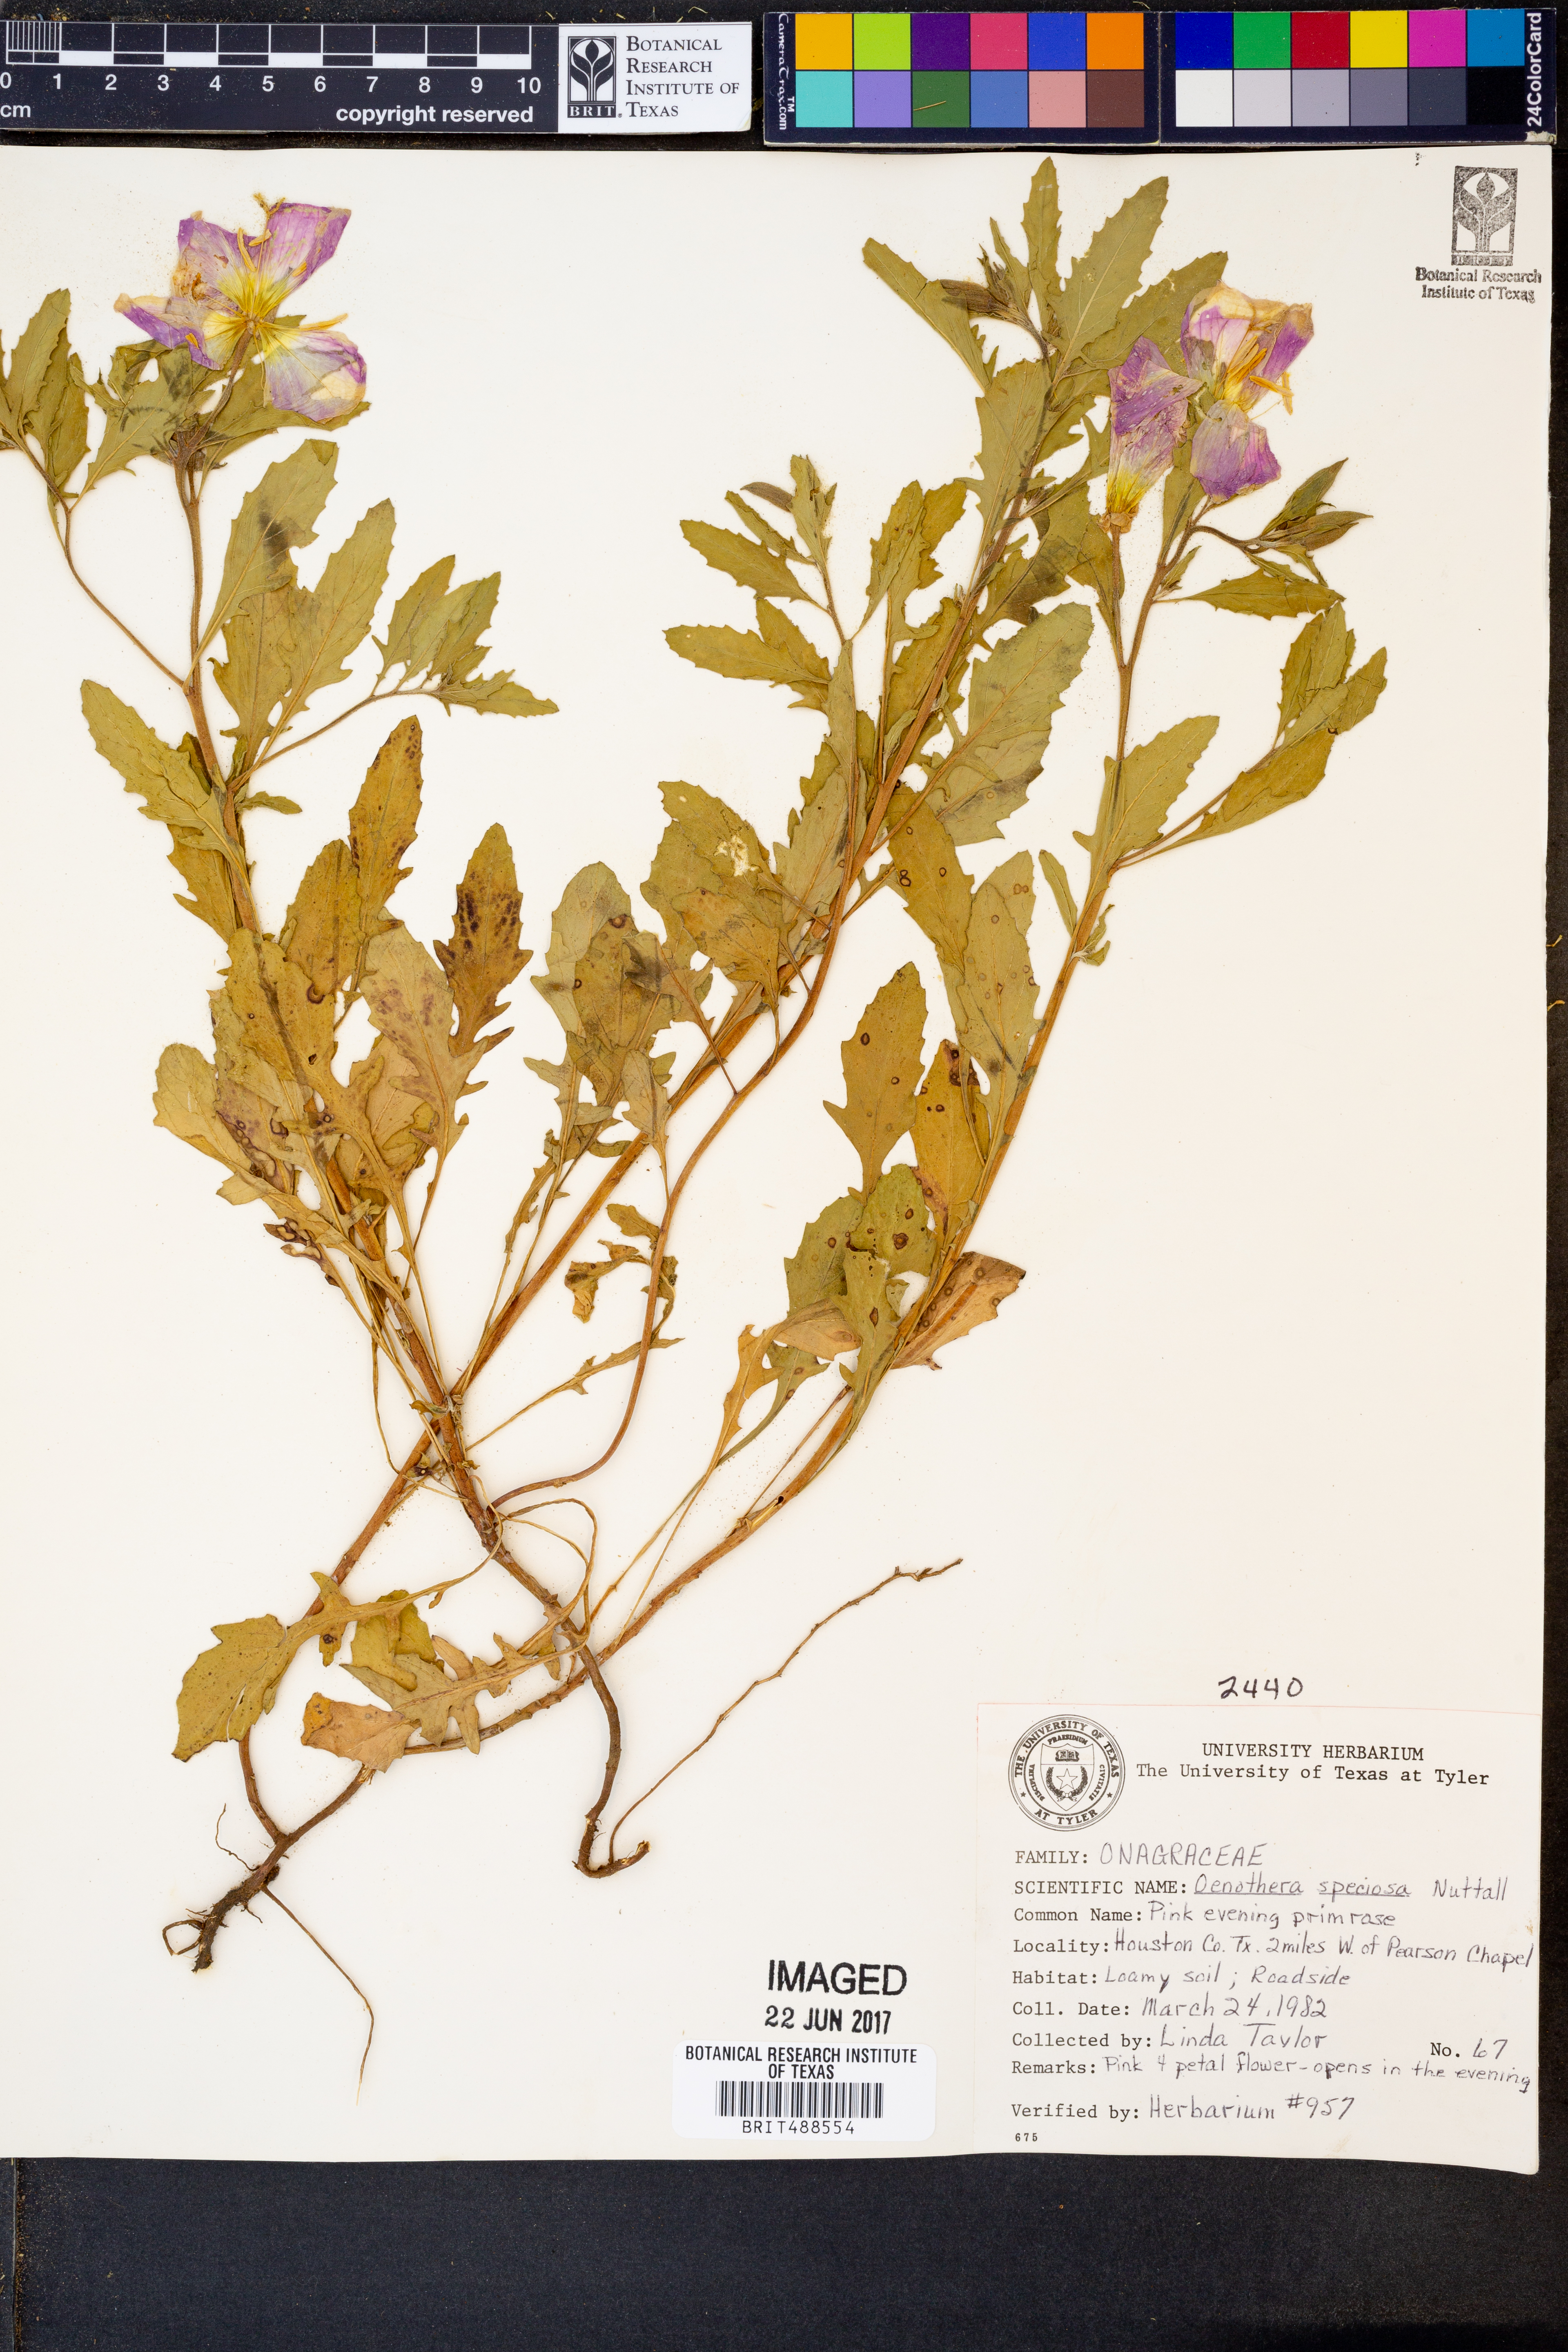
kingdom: Plantae
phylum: Tracheophyta
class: Magnoliopsida
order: Myrtales
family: Onagraceae
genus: Oenothera
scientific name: Oenothera speciosa
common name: White evening-primrose
